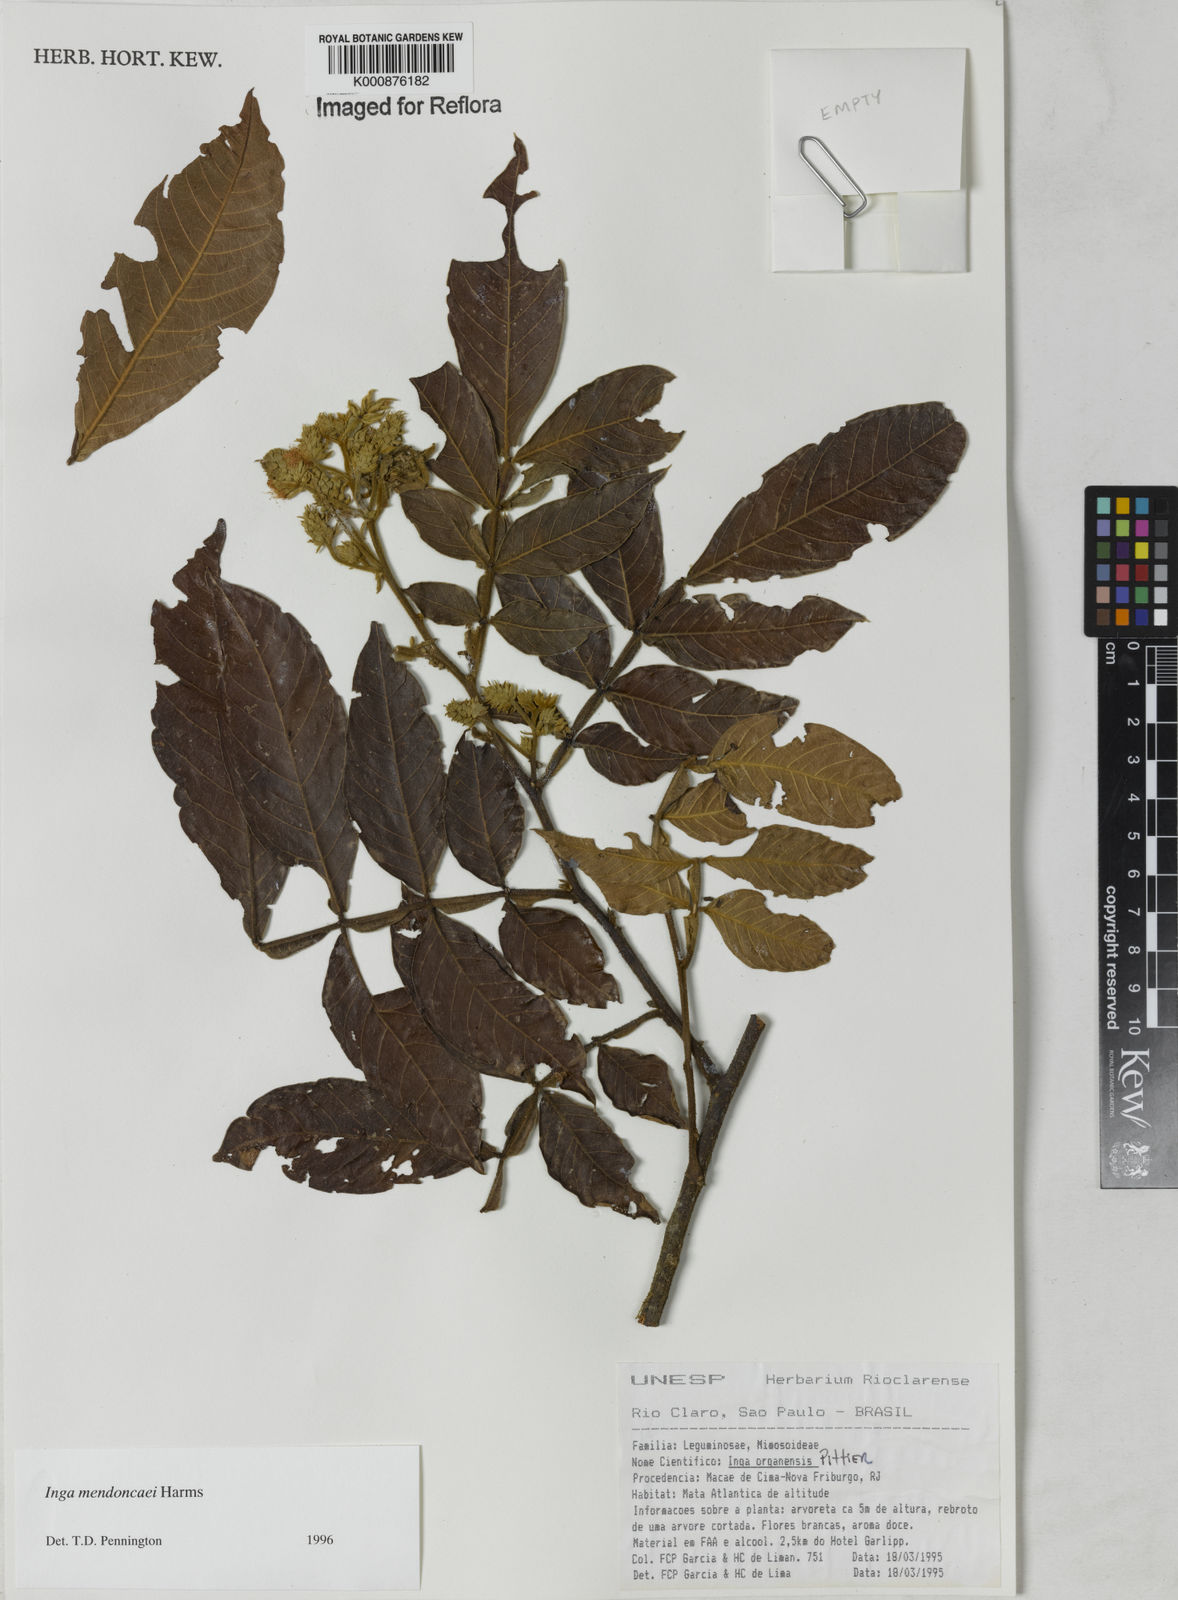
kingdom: Plantae
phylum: Tracheophyta
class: Magnoliopsida
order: Fabales
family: Fabaceae
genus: Inga
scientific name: Inga mendoncaei
